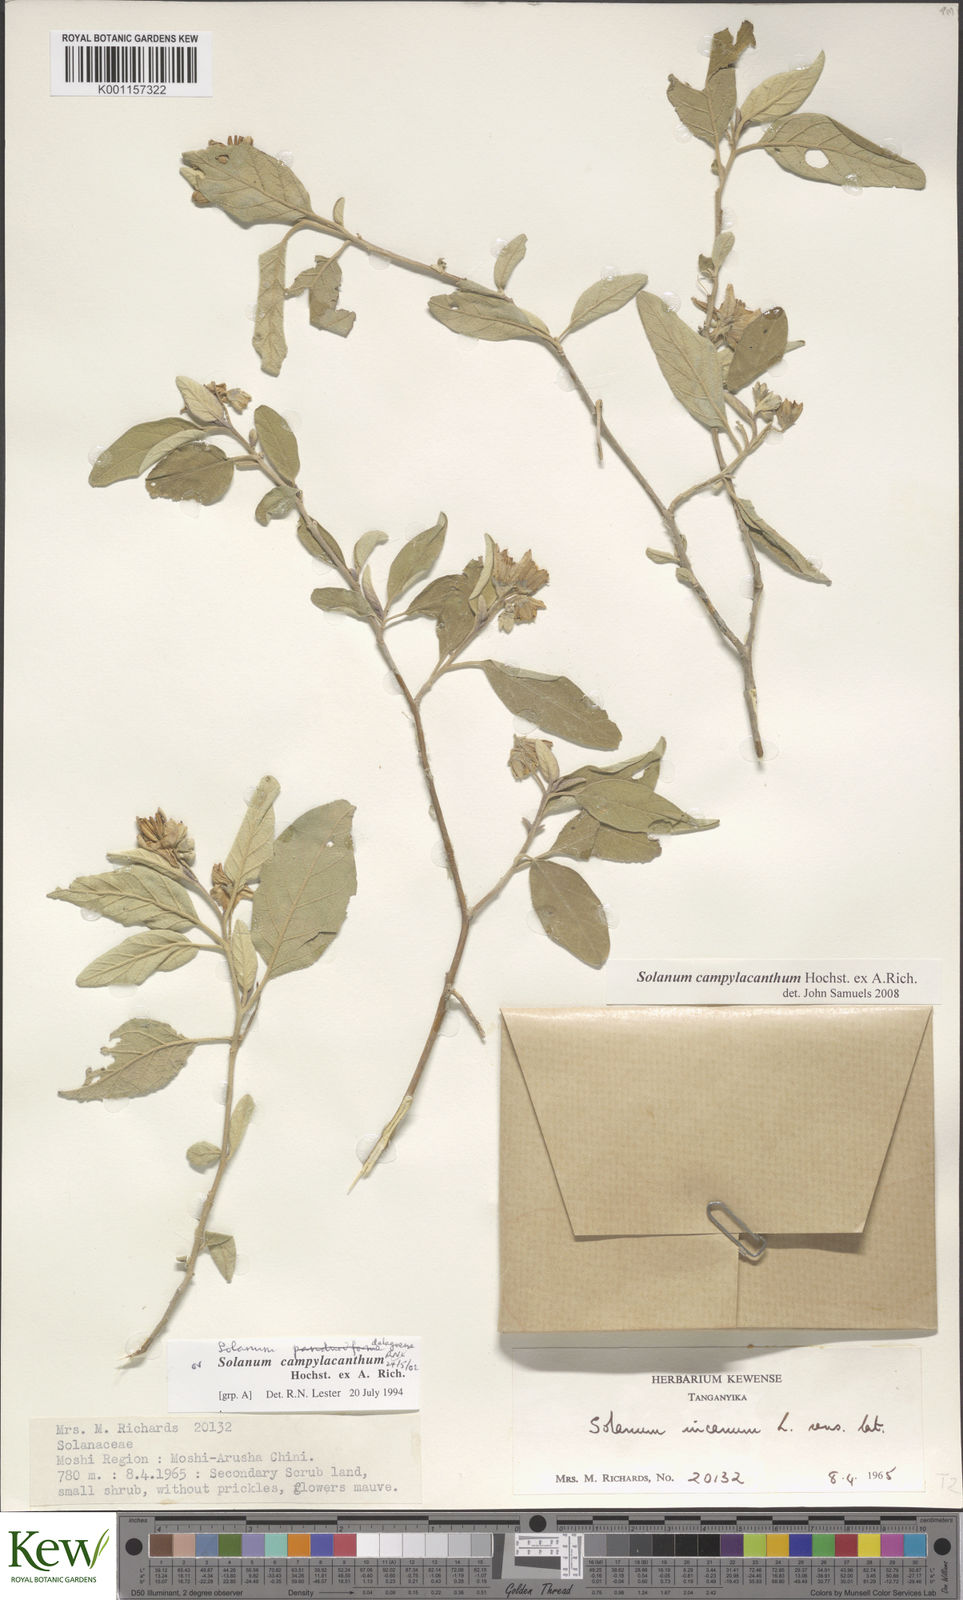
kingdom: Plantae
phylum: Tracheophyta
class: Magnoliopsida
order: Solanales
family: Solanaceae
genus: Solanum
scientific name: Solanum campylacanthum
